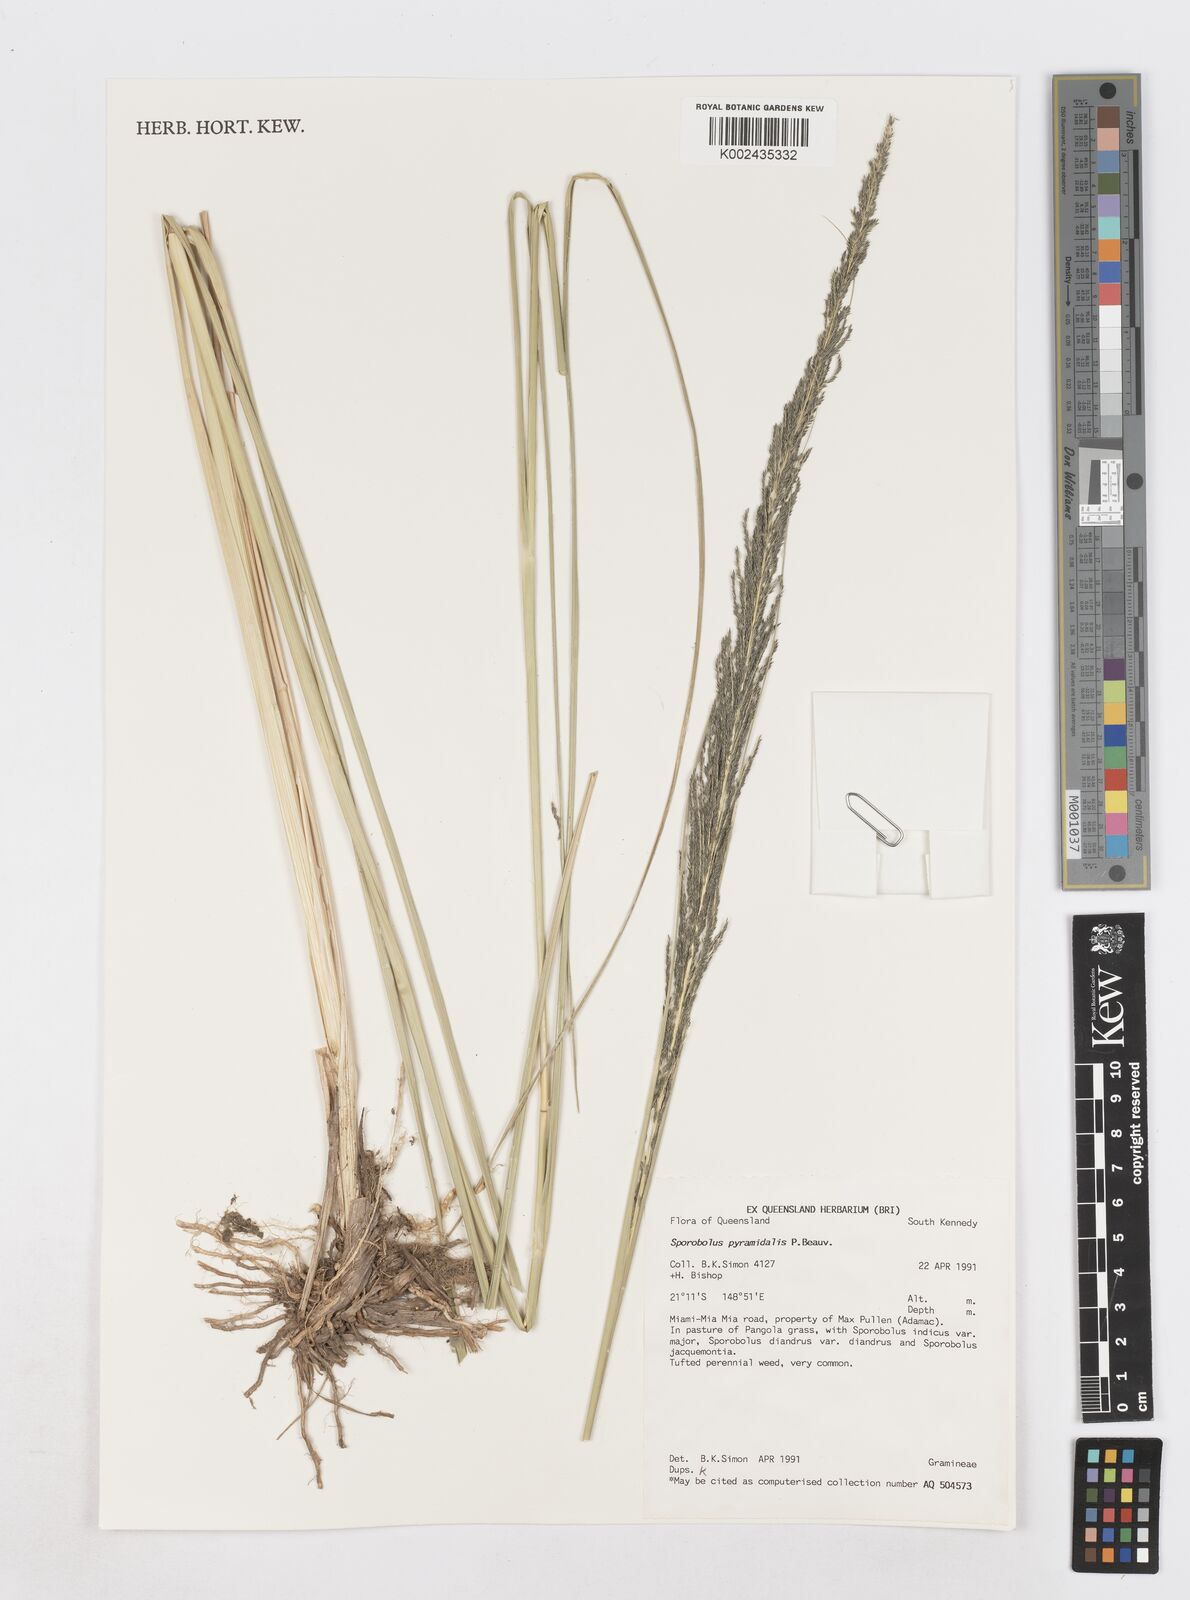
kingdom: Plantae
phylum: Tracheophyta
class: Liliopsida
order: Poales
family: Poaceae
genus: Sporobolus
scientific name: Sporobolus pyramidalis
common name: West indian dropseed
